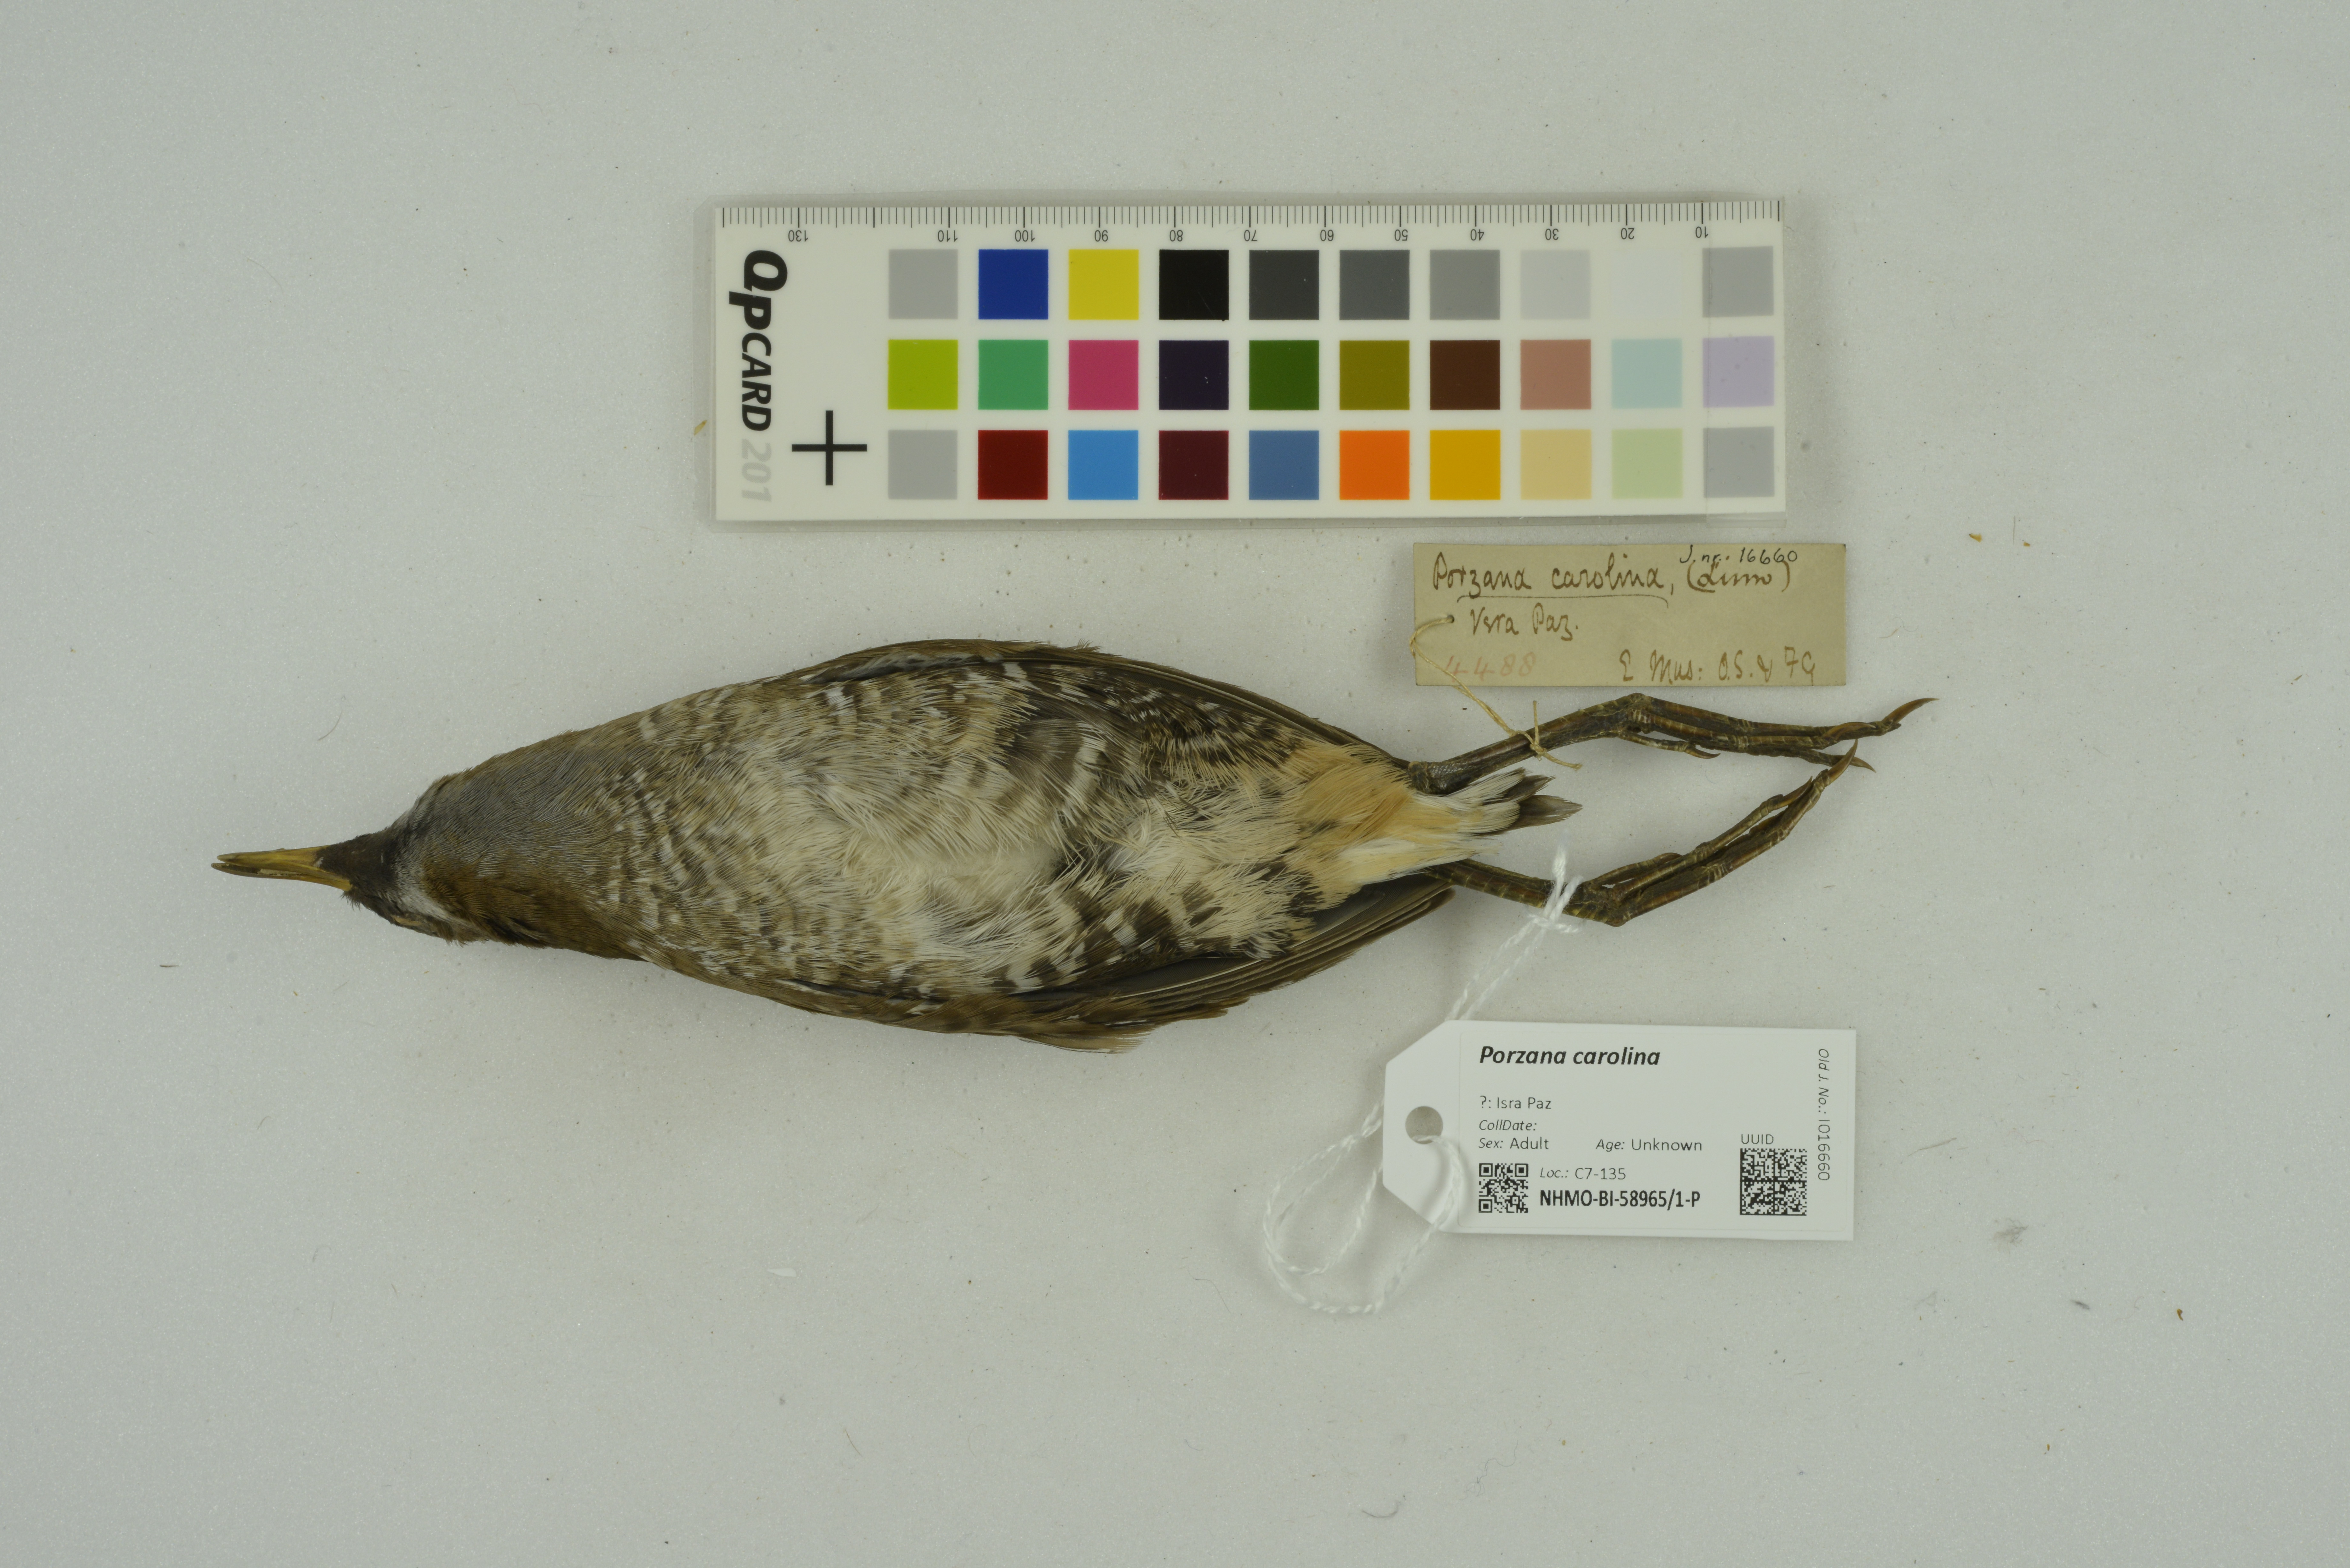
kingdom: Animalia
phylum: Chordata
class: Aves
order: Gruiformes
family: Rallidae
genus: Porzana
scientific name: Porzana carolina
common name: Sora
